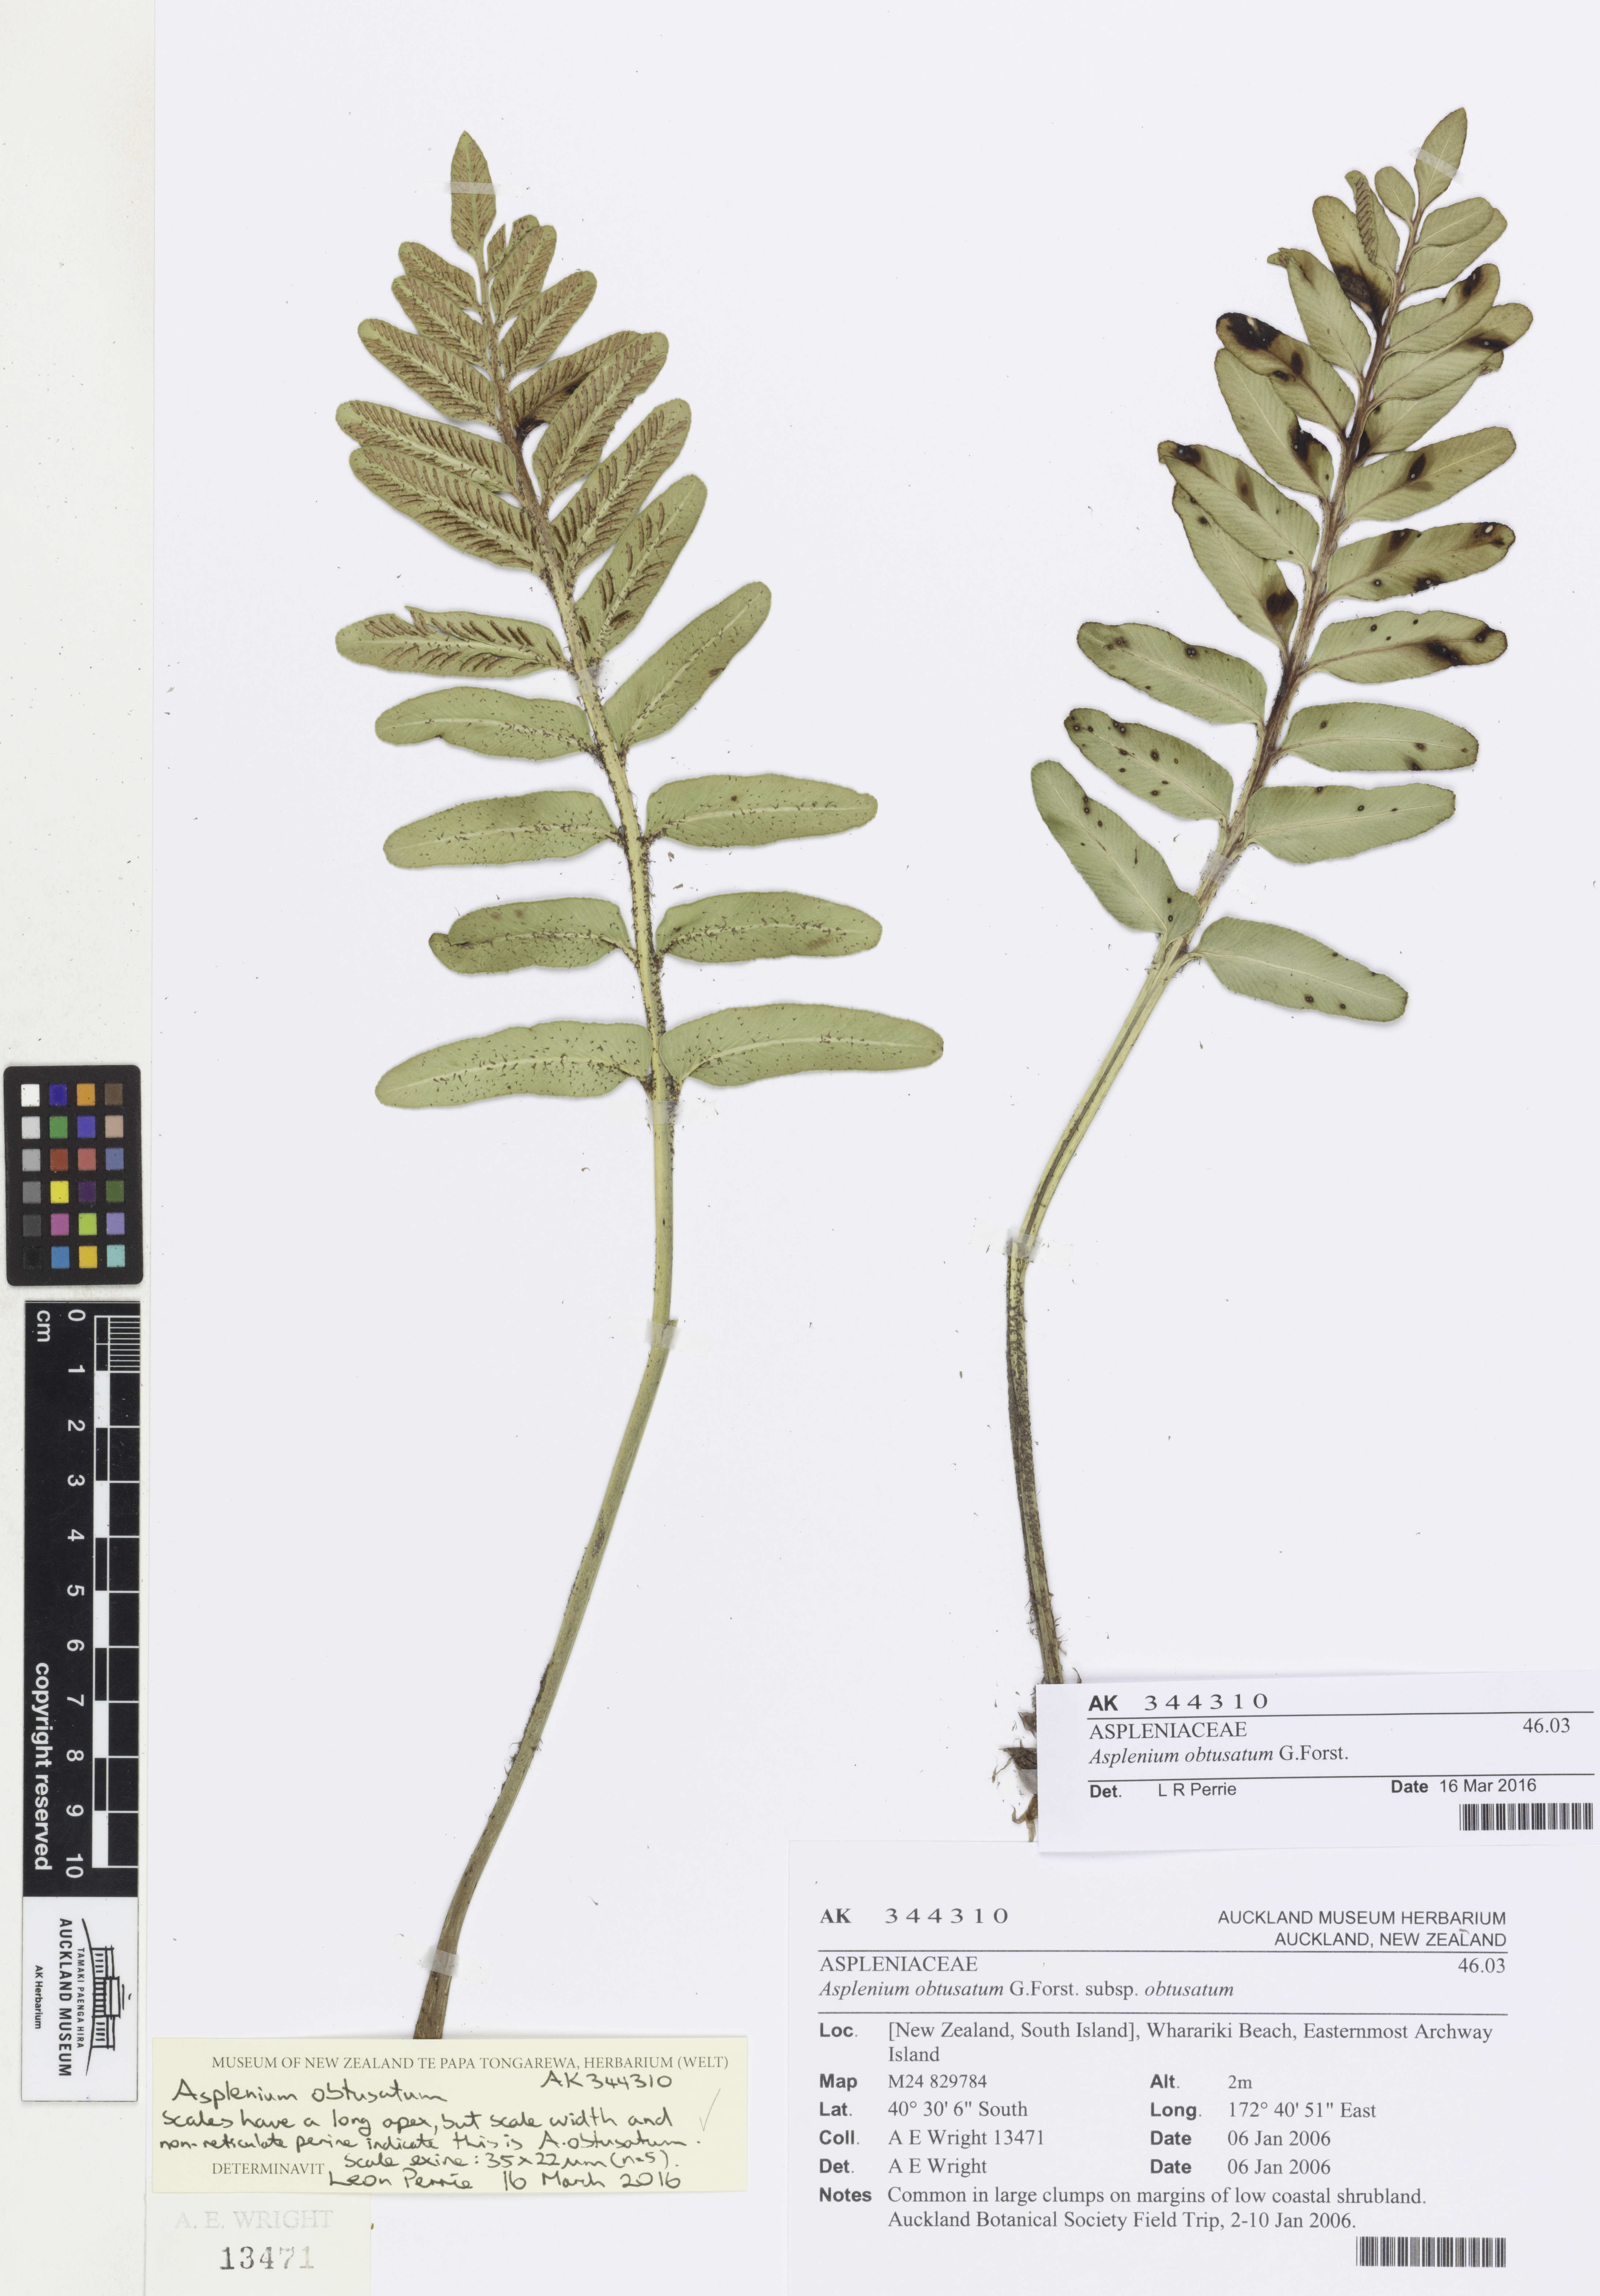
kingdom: Plantae
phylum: Tracheophyta
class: Polypodiopsida
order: Polypodiales
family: Aspleniaceae
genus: Asplenium
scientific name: Asplenium obtusatum
